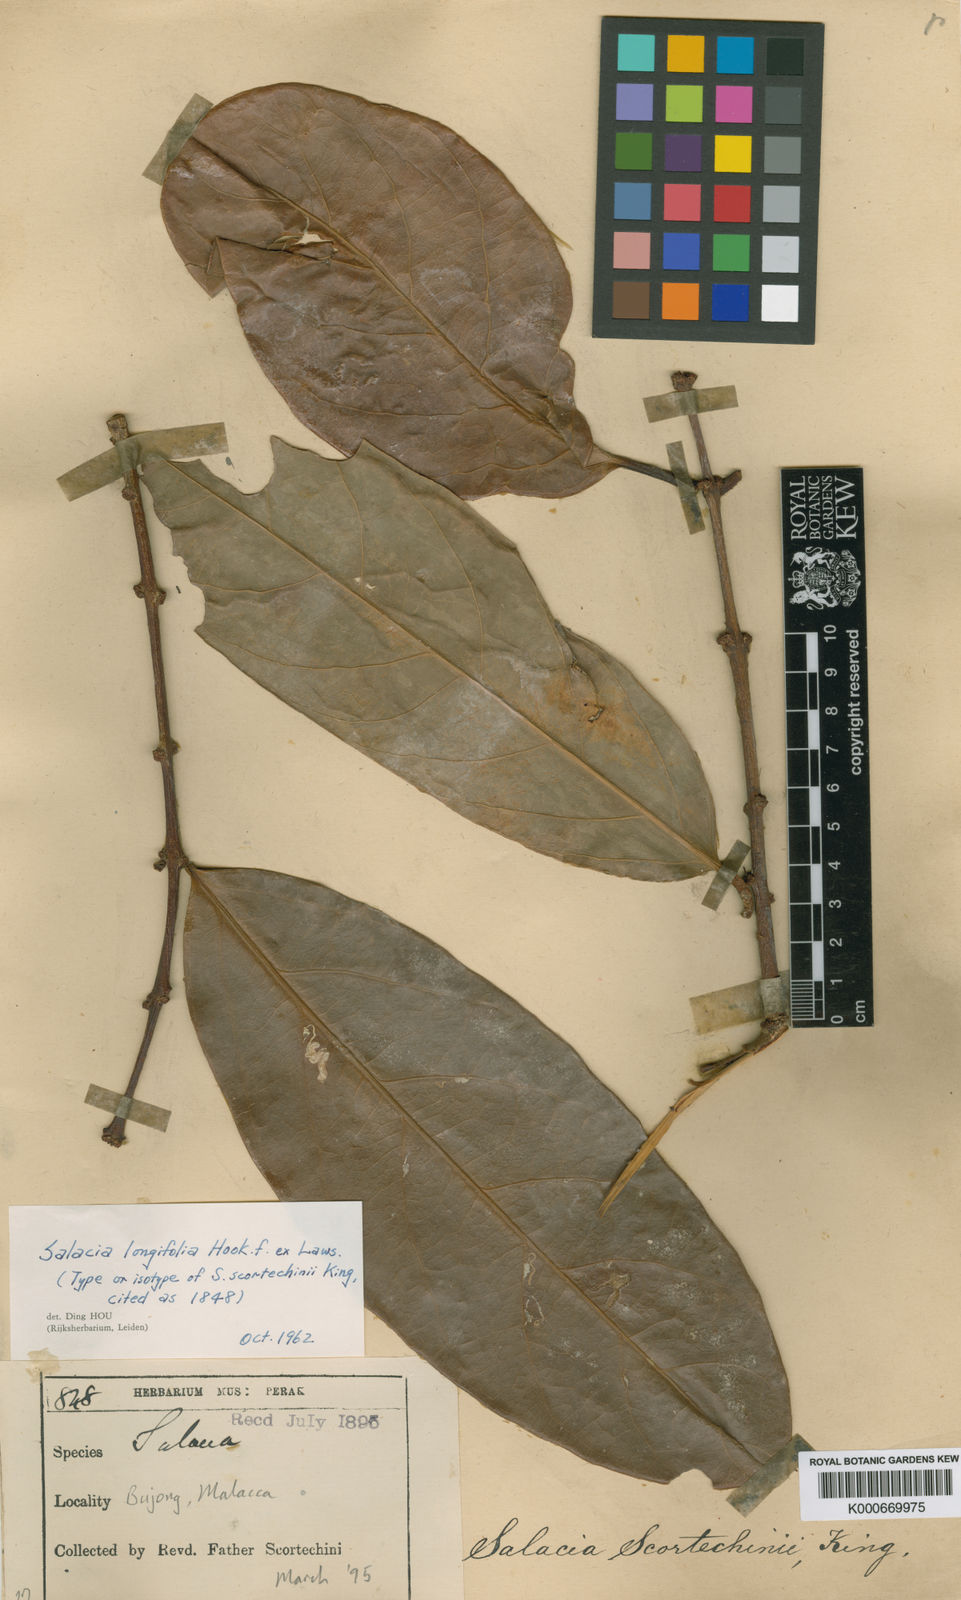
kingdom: Plantae
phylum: Tracheophyta
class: Magnoliopsida
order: Celastrales
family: Celastraceae
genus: Salacia
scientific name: Salacia grandiflora
